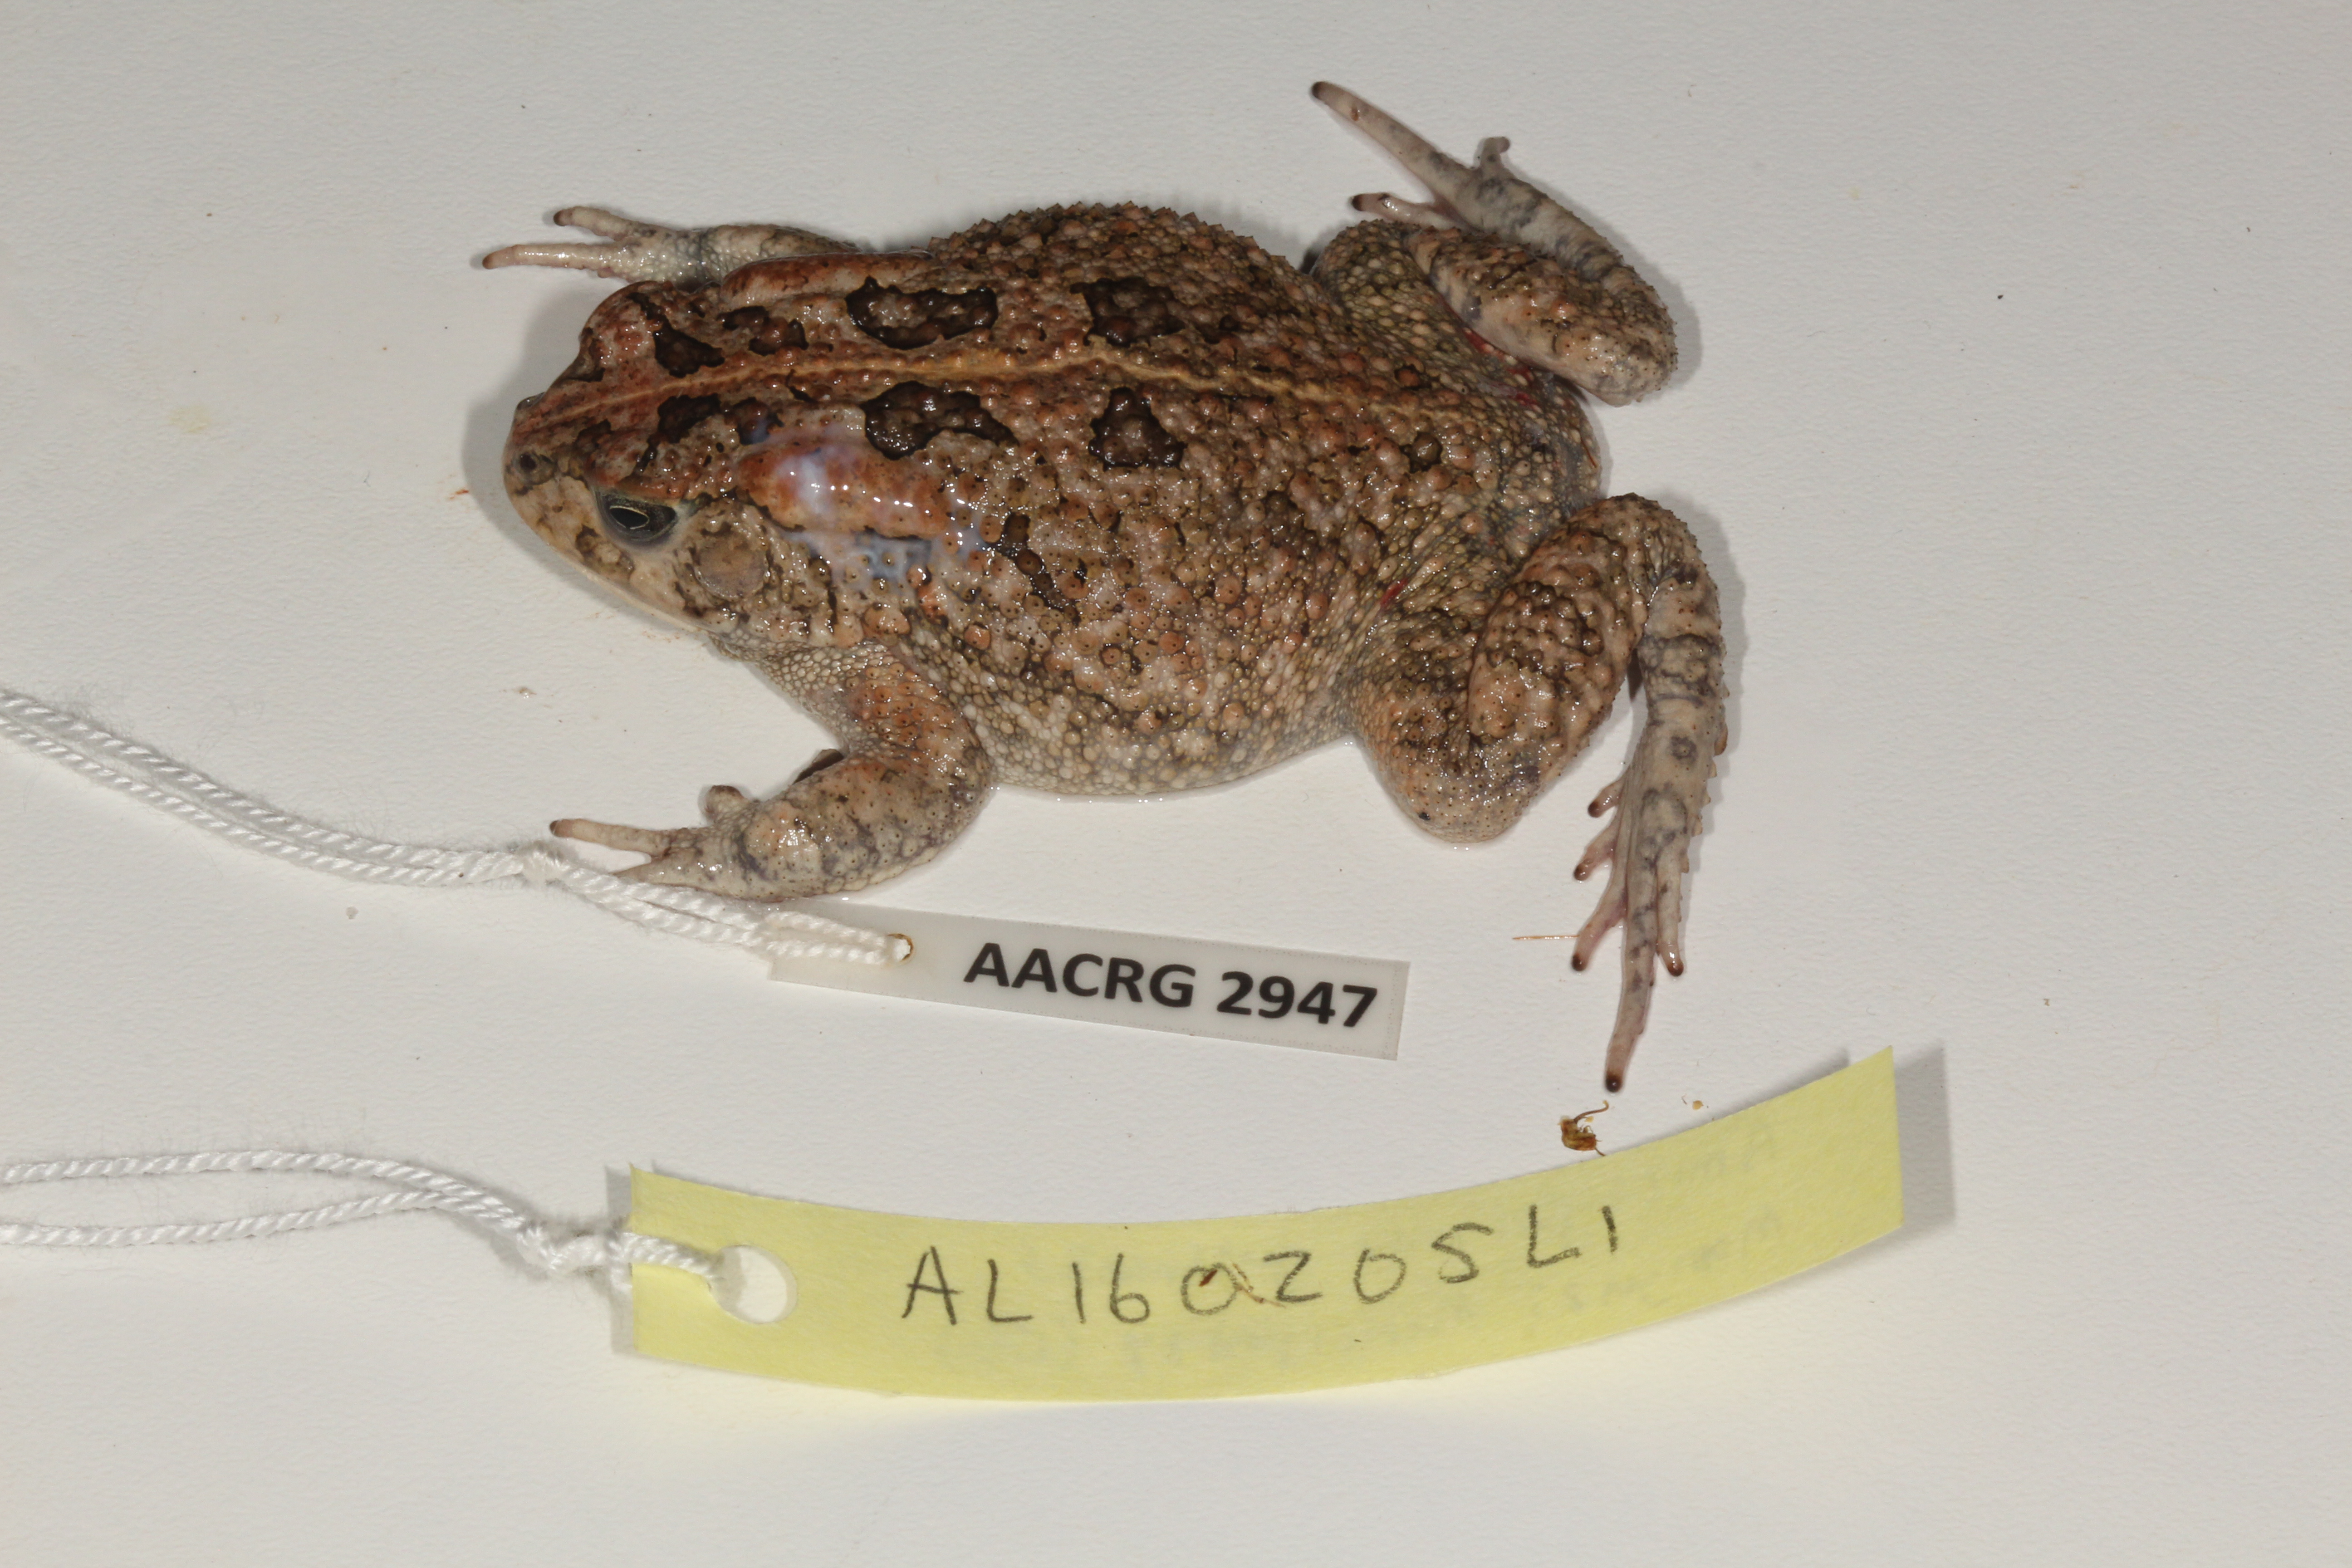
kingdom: Animalia
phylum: Chordata
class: Amphibia
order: Anura
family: Bufonidae
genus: Sclerophrys
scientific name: Sclerophrys gutturalis
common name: African common toad
